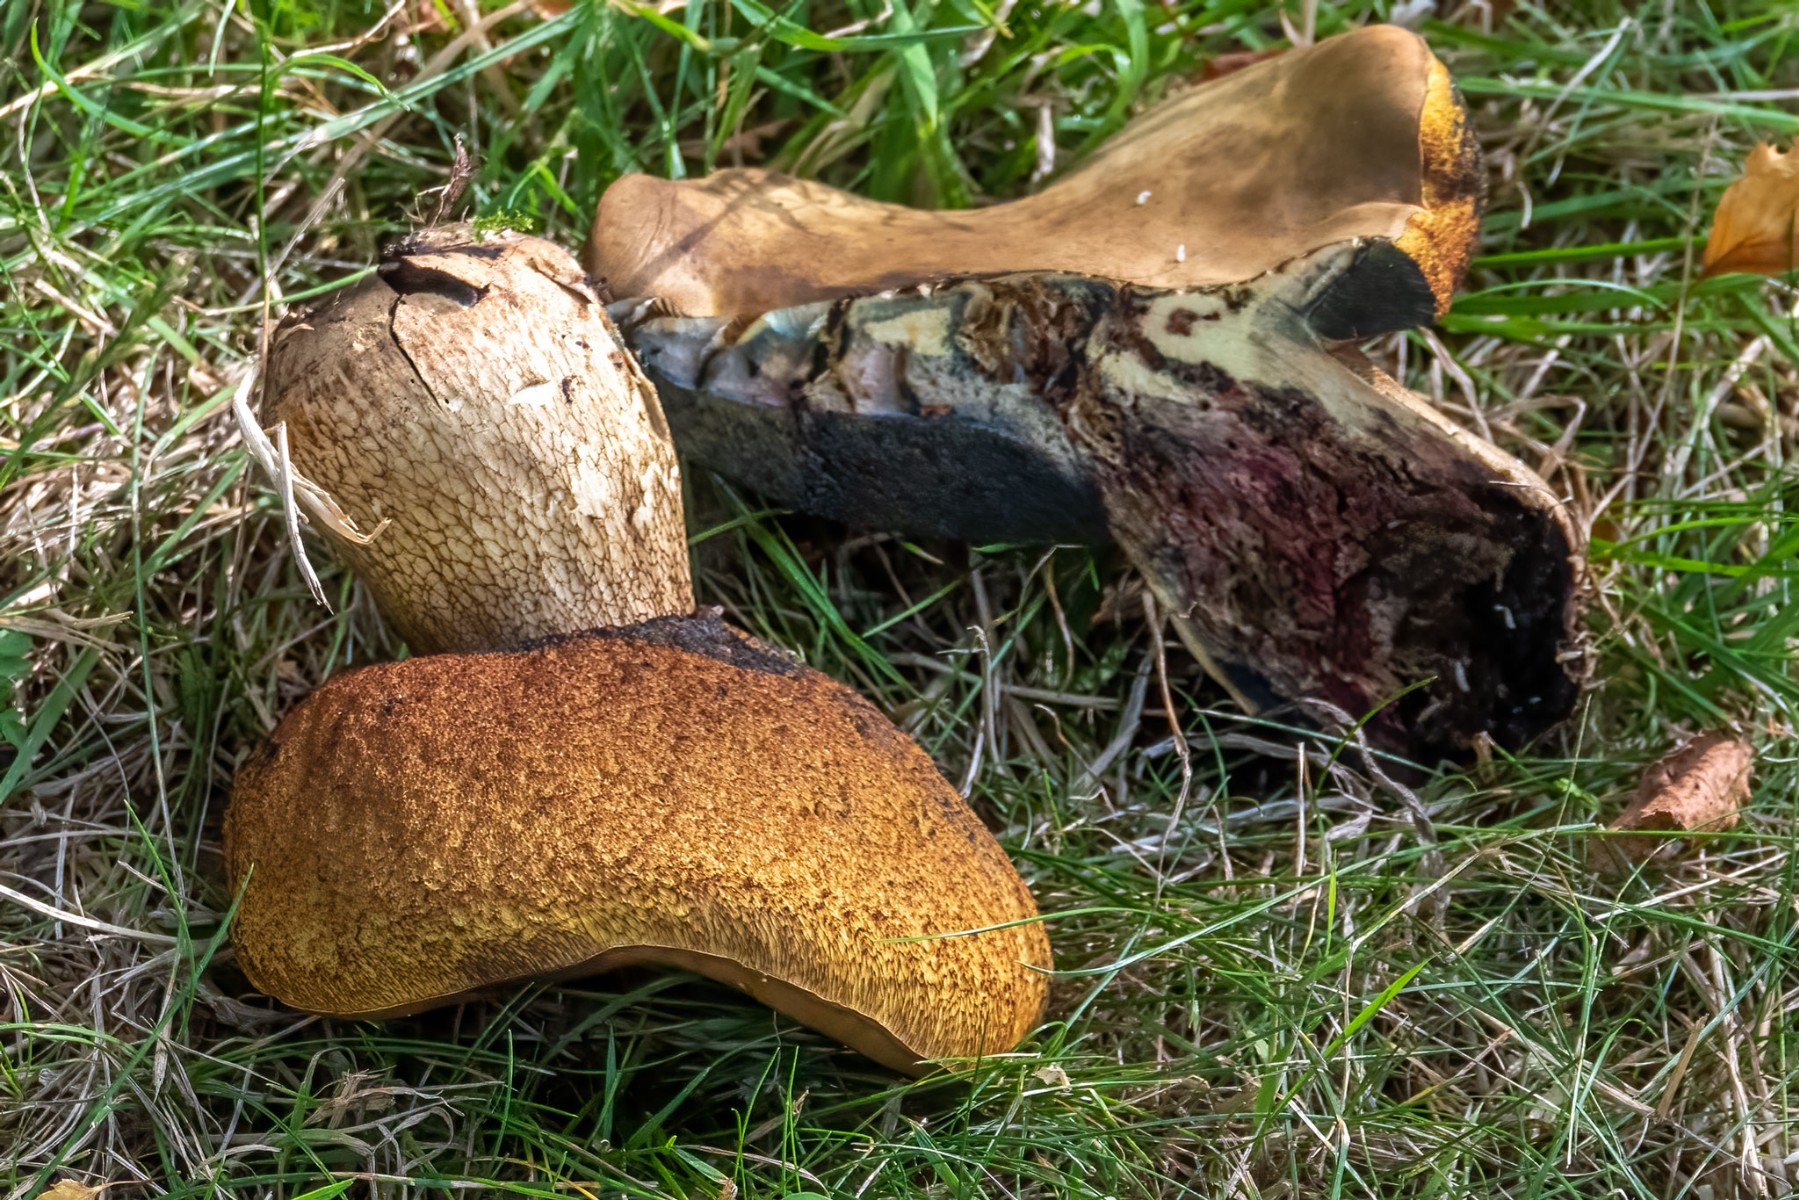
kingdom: Fungi
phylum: Basidiomycota
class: Agaricomycetes
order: Boletales
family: Boletaceae
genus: Suillellus
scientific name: Suillellus luridus
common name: netstokket indigorørhat
